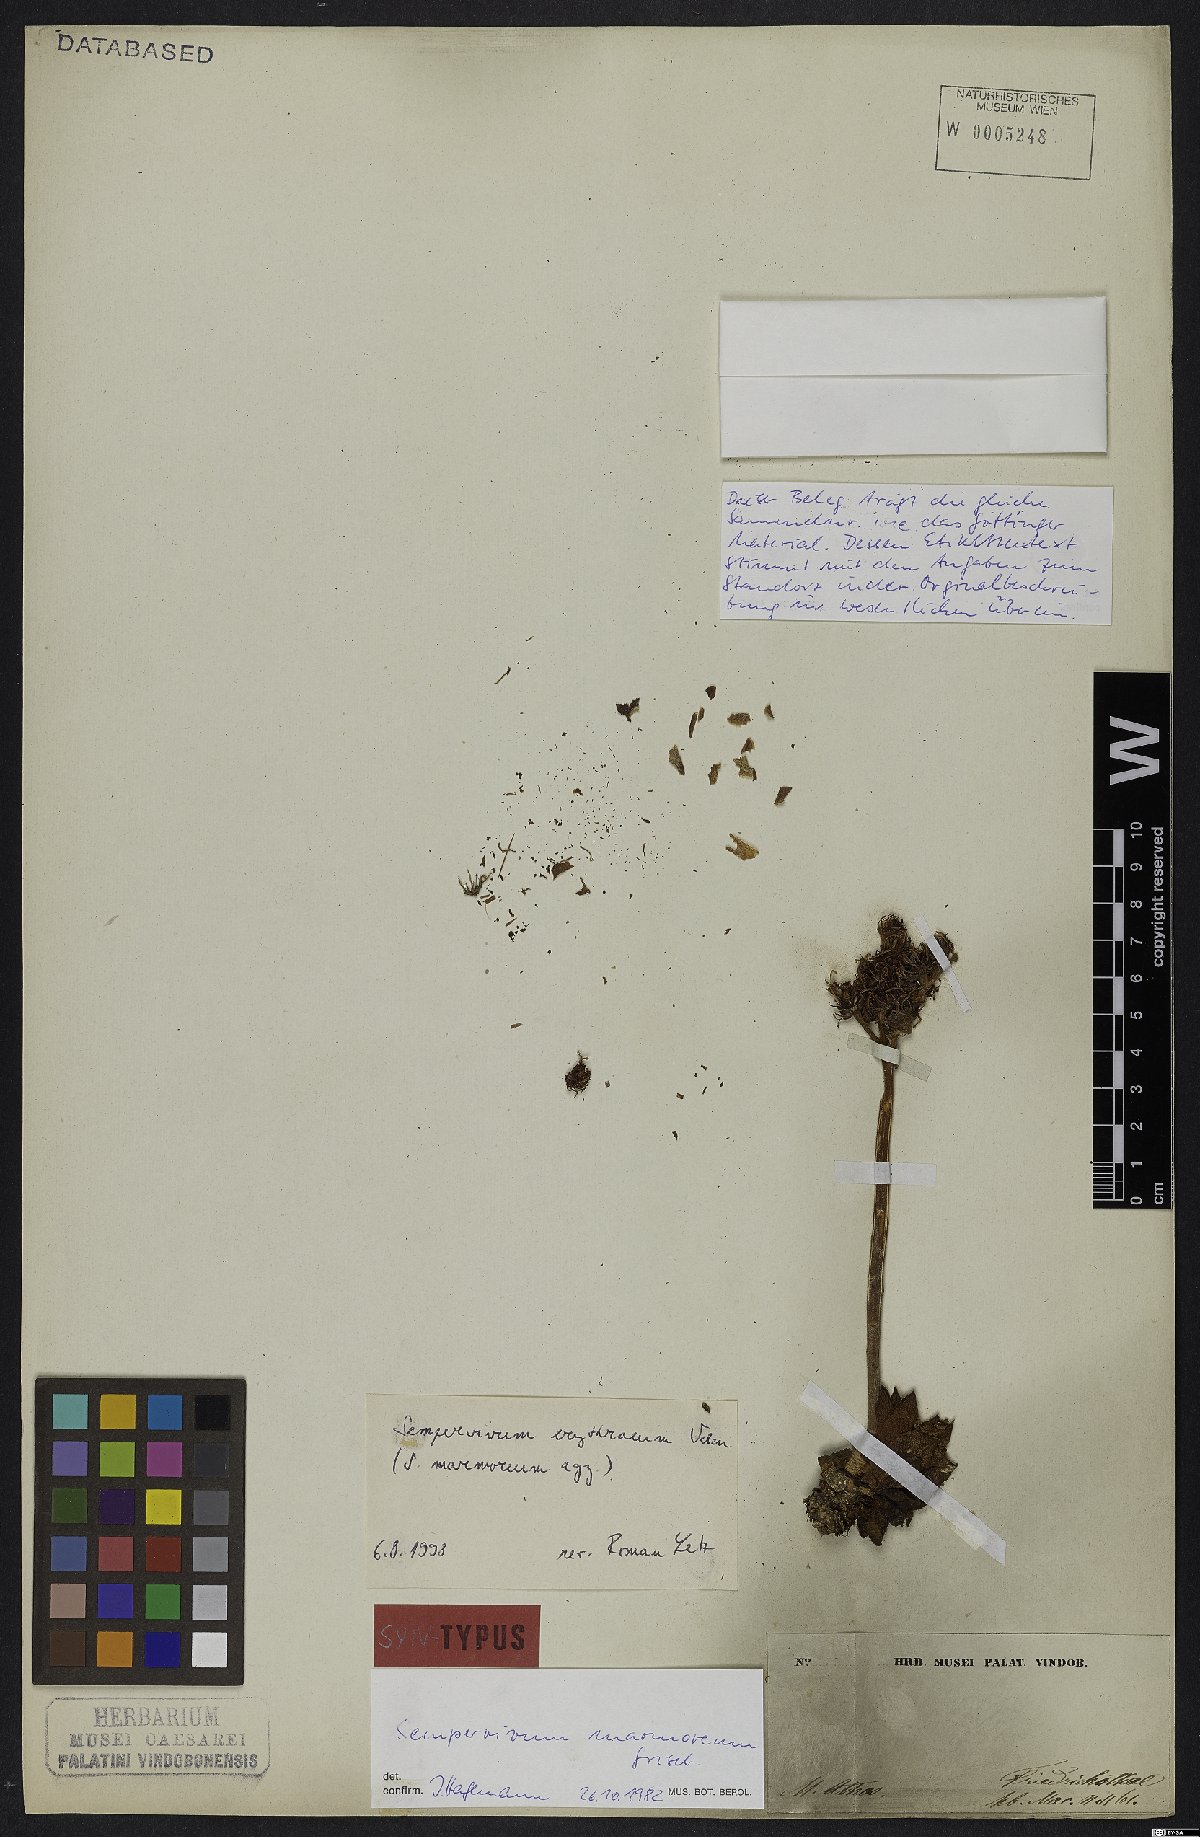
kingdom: Plantae
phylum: Tracheophyta
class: Magnoliopsida
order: Saxifragales
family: Crassulaceae
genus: Sempervivum
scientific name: Sempervivum marmoreum
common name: Houseleek
